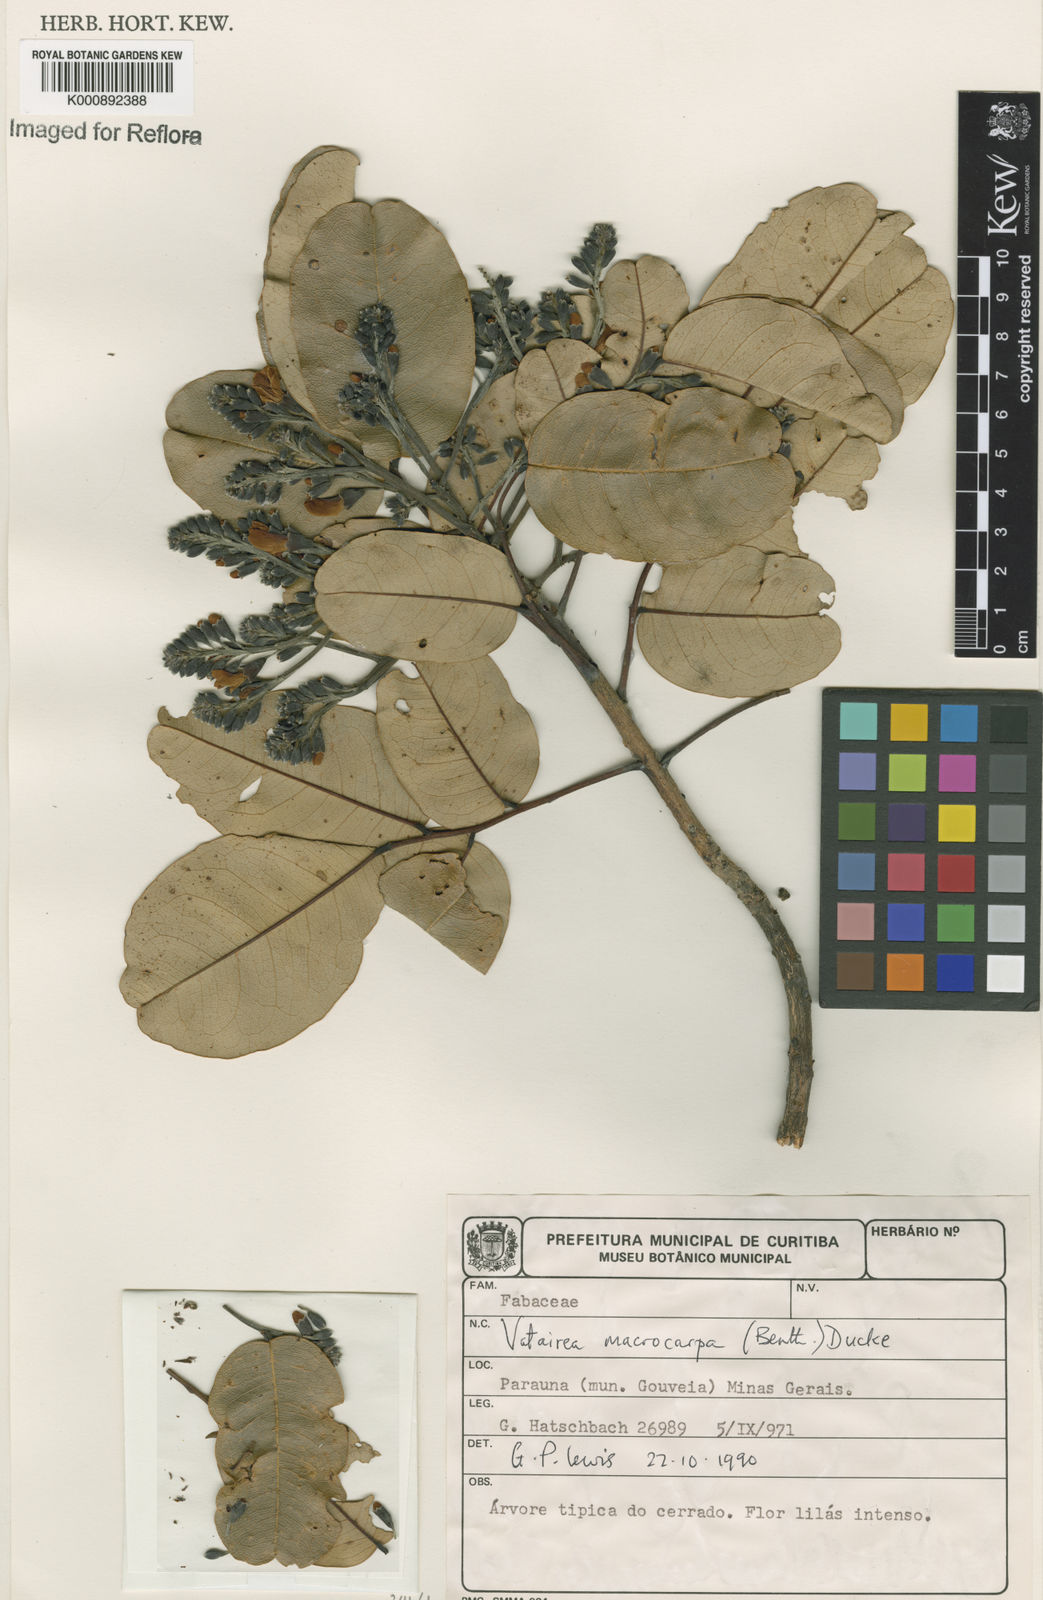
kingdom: Plantae
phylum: Tracheophyta
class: Magnoliopsida
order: Fabales
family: Fabaceae
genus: Vatairea
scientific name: Vatairea macrocarpa
